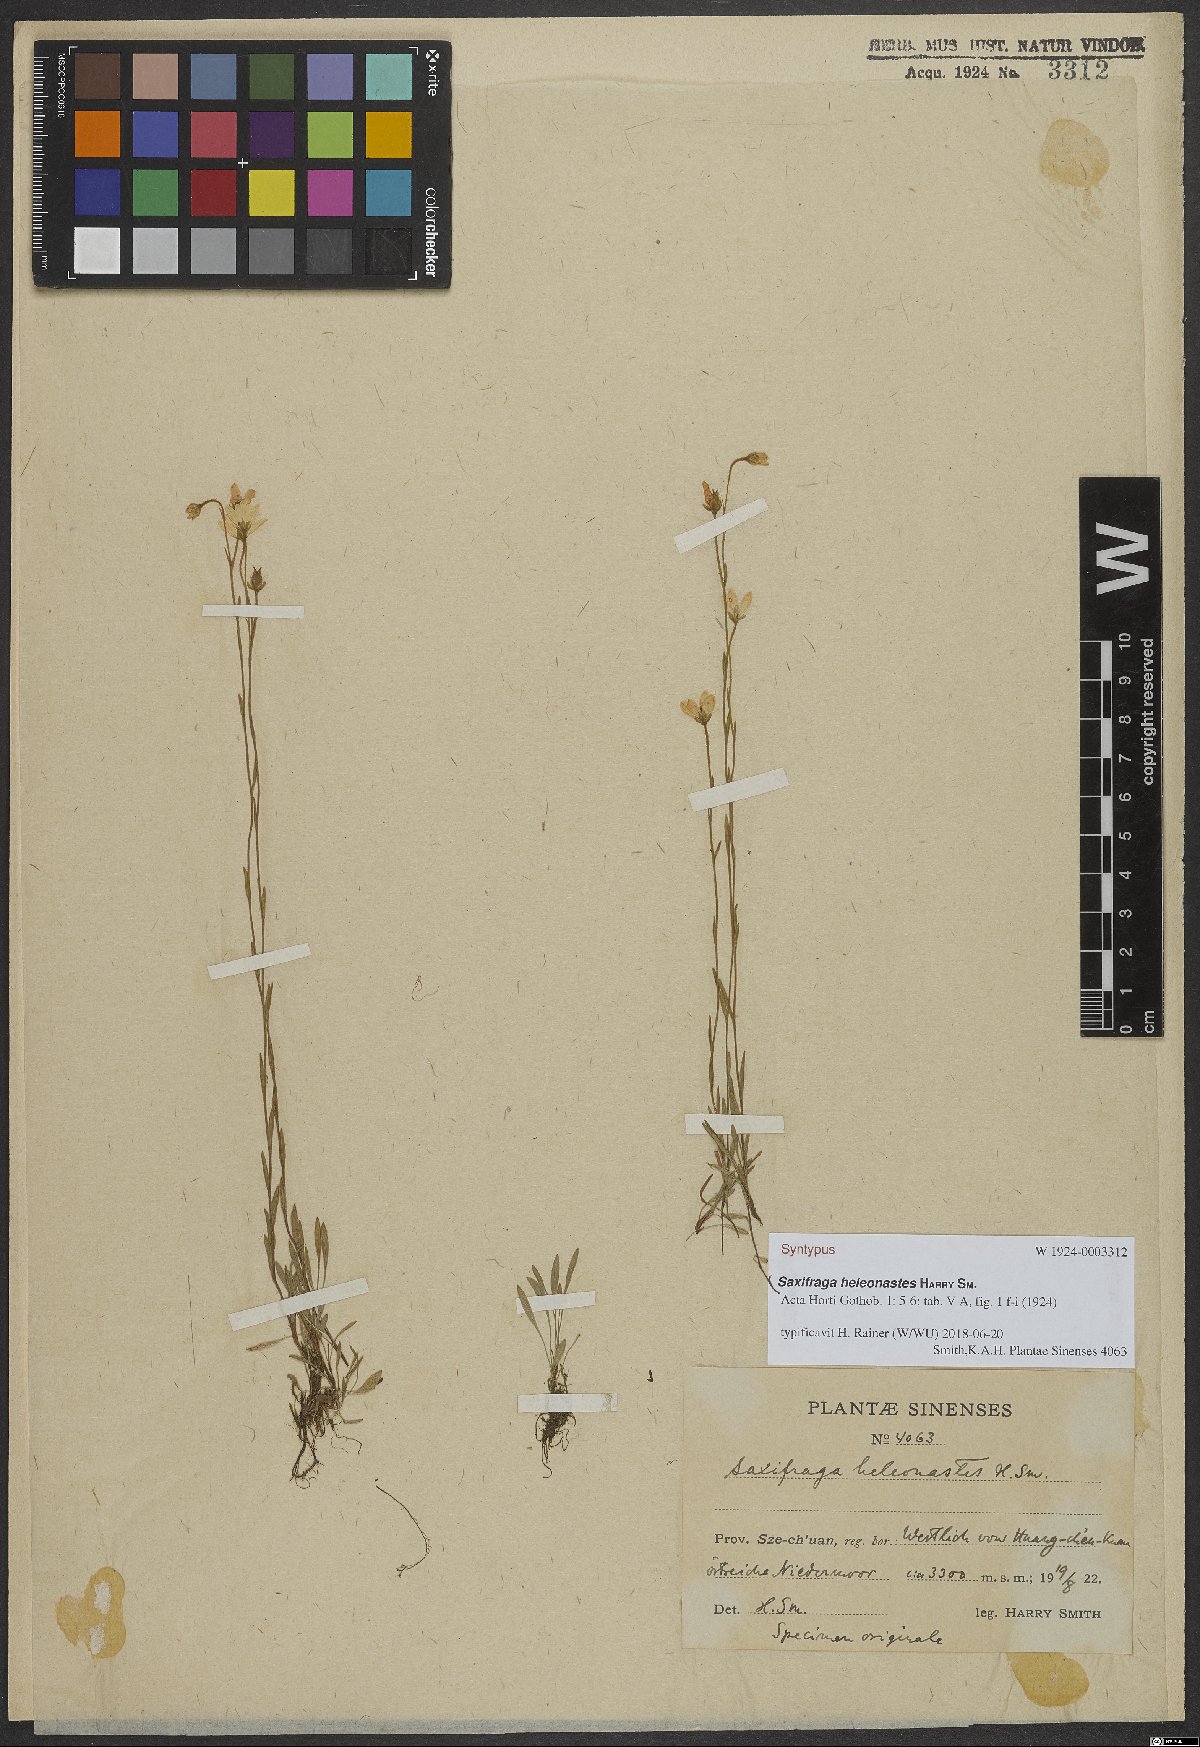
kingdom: Plantae
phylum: Tracheophyta
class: Magnoliopsida
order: Saxifragales
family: Saxifragaceae
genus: Saxifraga
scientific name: Saxifraga heleonastes
